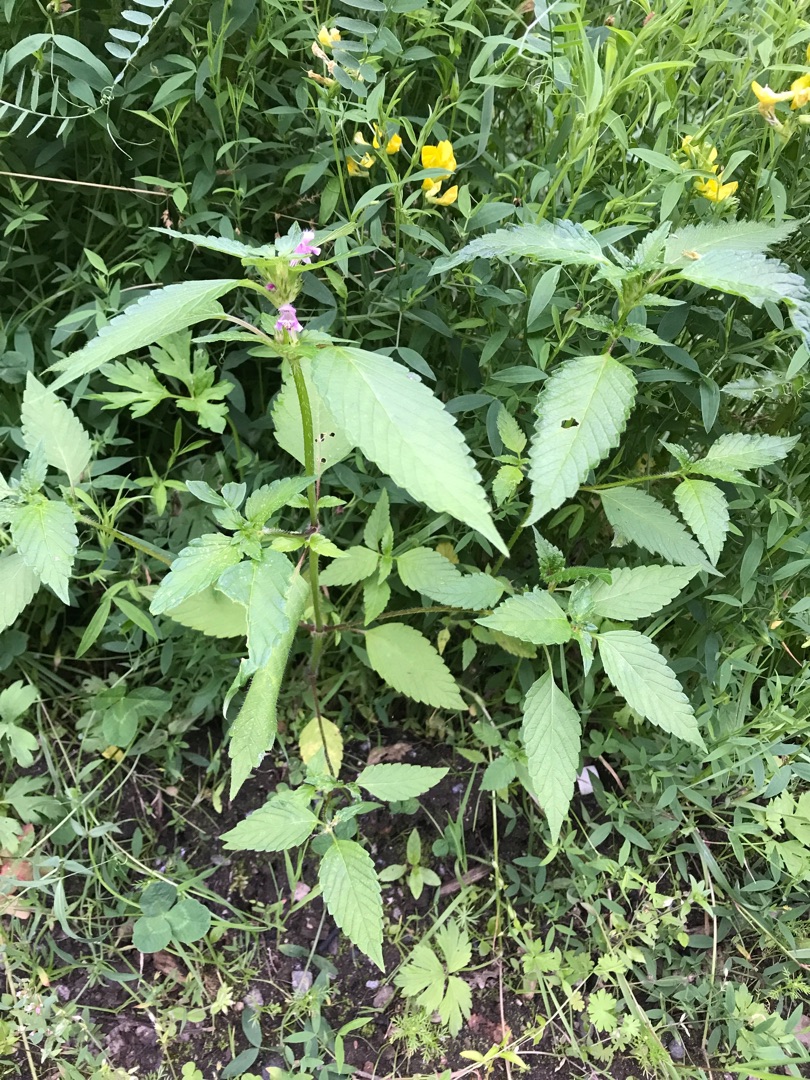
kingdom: Plantae
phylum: Tracheophyta
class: Magnoliopsida
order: Lamiales
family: Lamiaceae
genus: Galeopsis
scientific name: Galeopsis tetrahit
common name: Almindelig hanekro
